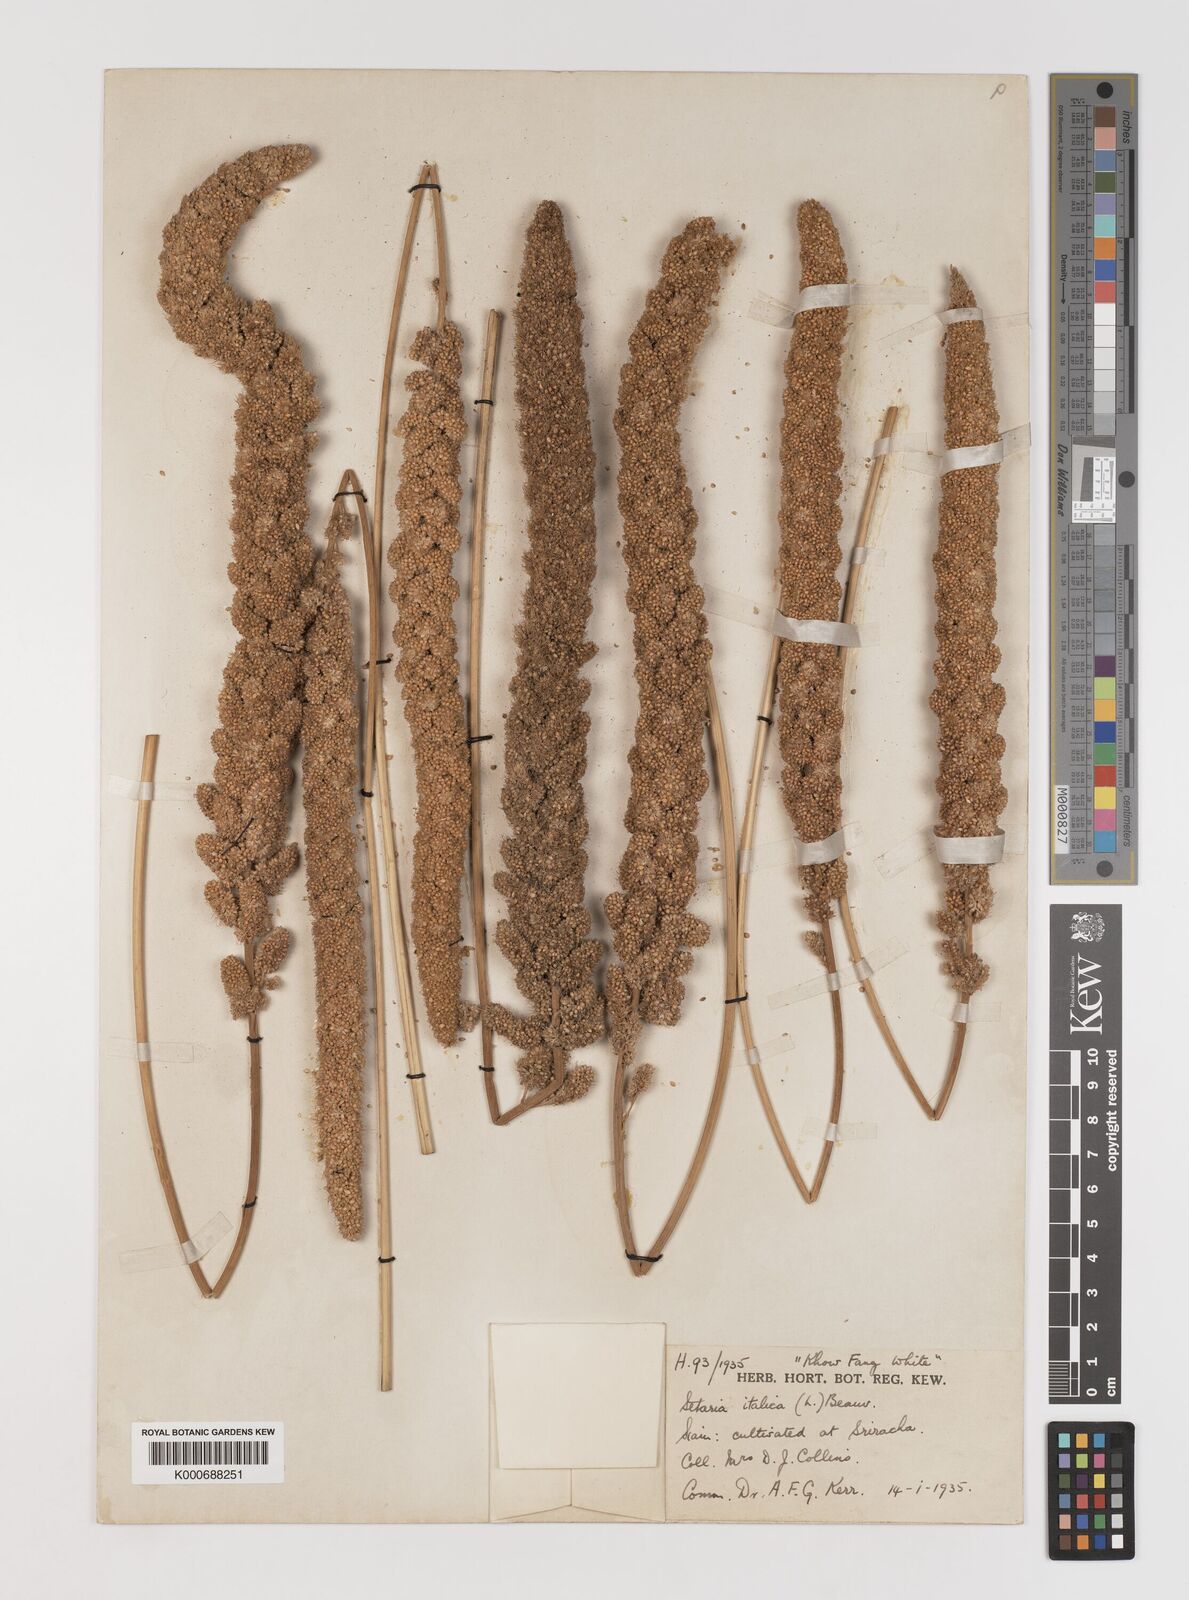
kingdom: Plantae
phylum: Tracheophyta
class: Liliopsida
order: Poales
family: Poaceae
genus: Setaria
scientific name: Setaria italica
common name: Foxtail bristle-grass
